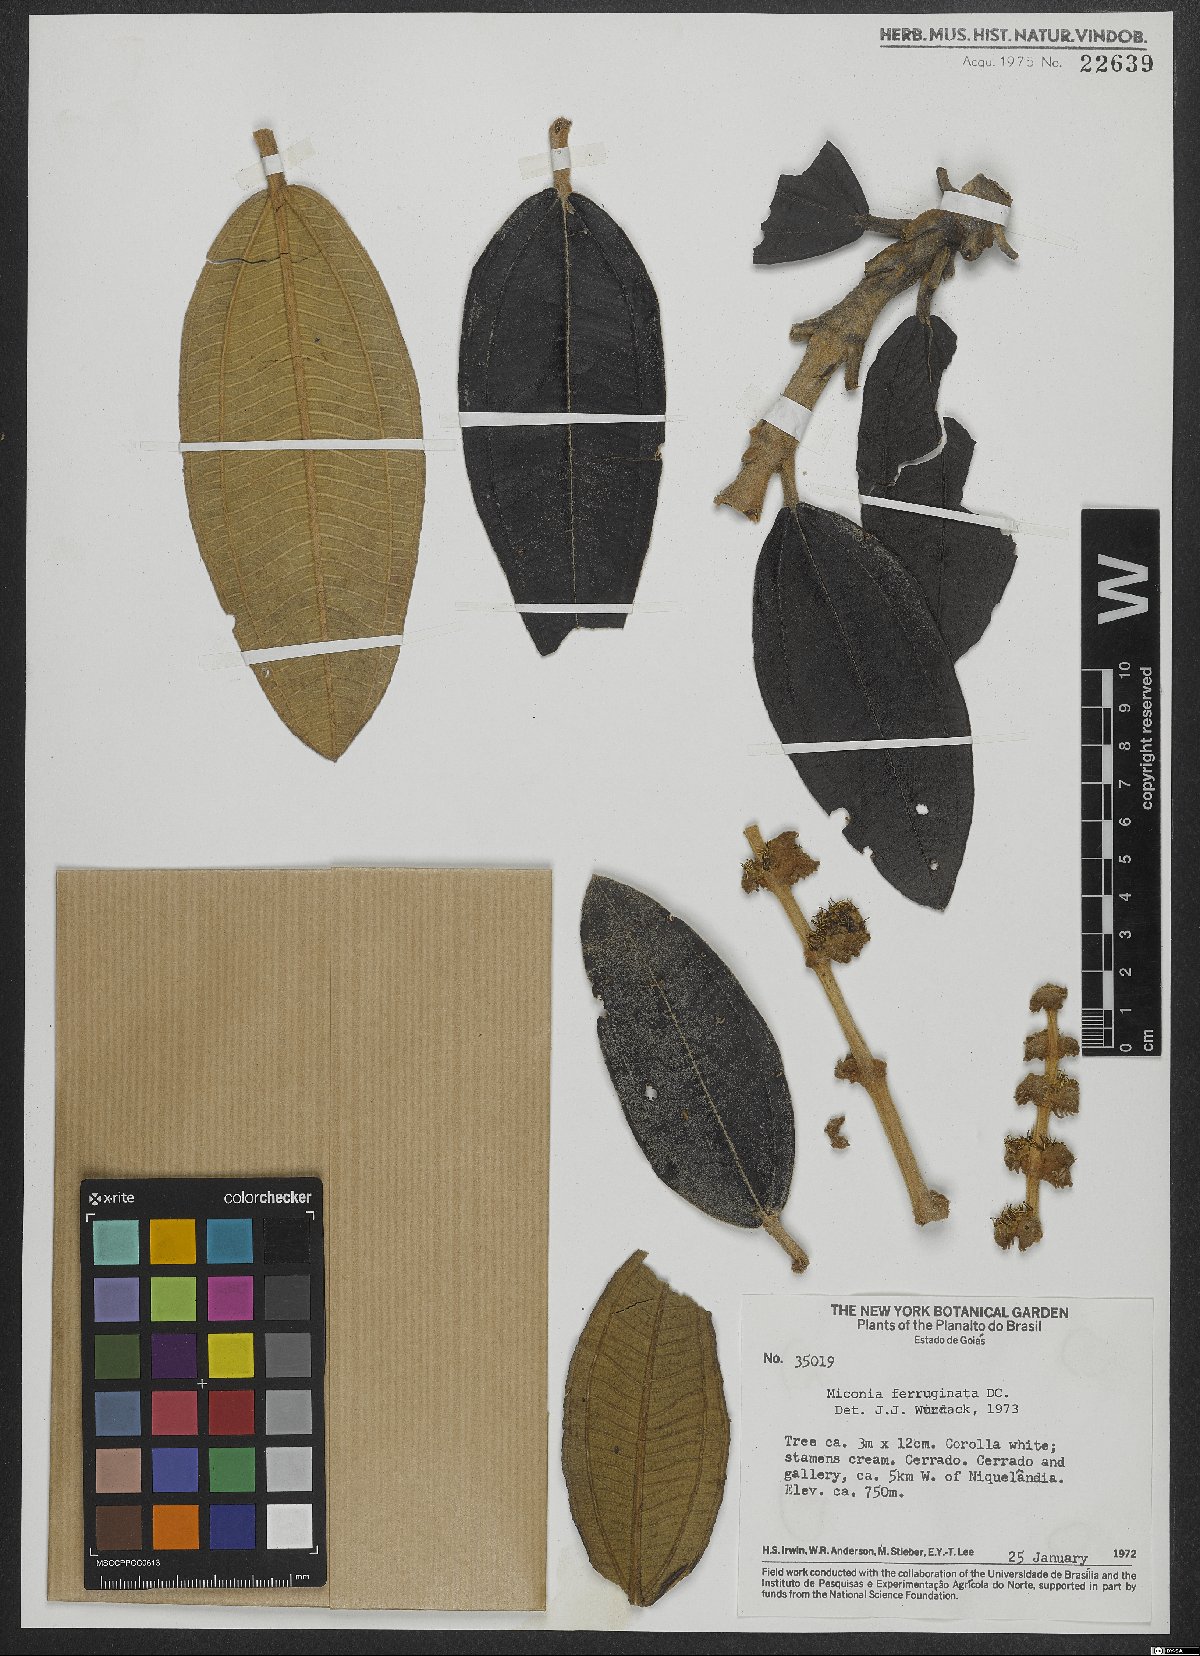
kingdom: Plantae
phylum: Tracheophyta
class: Magnoliopsida
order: Myrtales
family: Melastomataceae
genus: Miconia
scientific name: Miconia ferruginata
